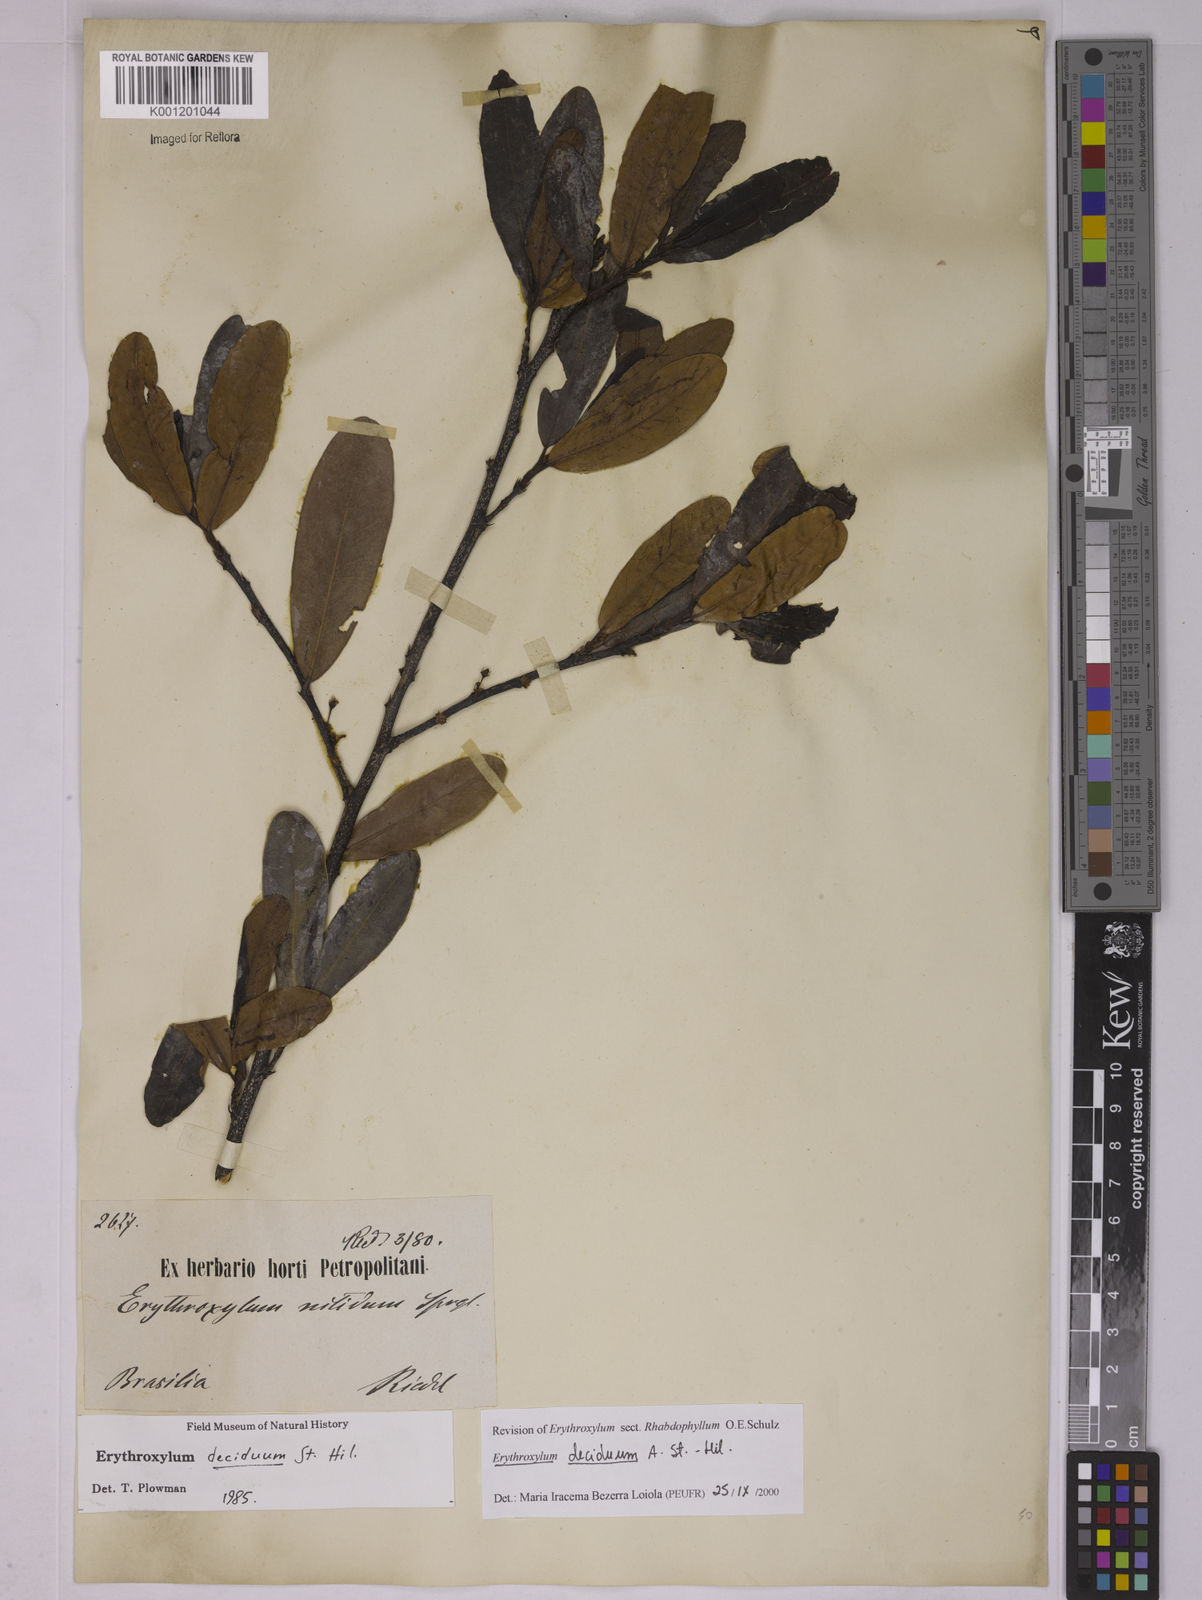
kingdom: Plantae
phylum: Tracheophyta
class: Magnoliopsida
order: Malpighiales
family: Erythroxylaceae
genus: Erythroxylum
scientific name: Erythroxylum deciduum
